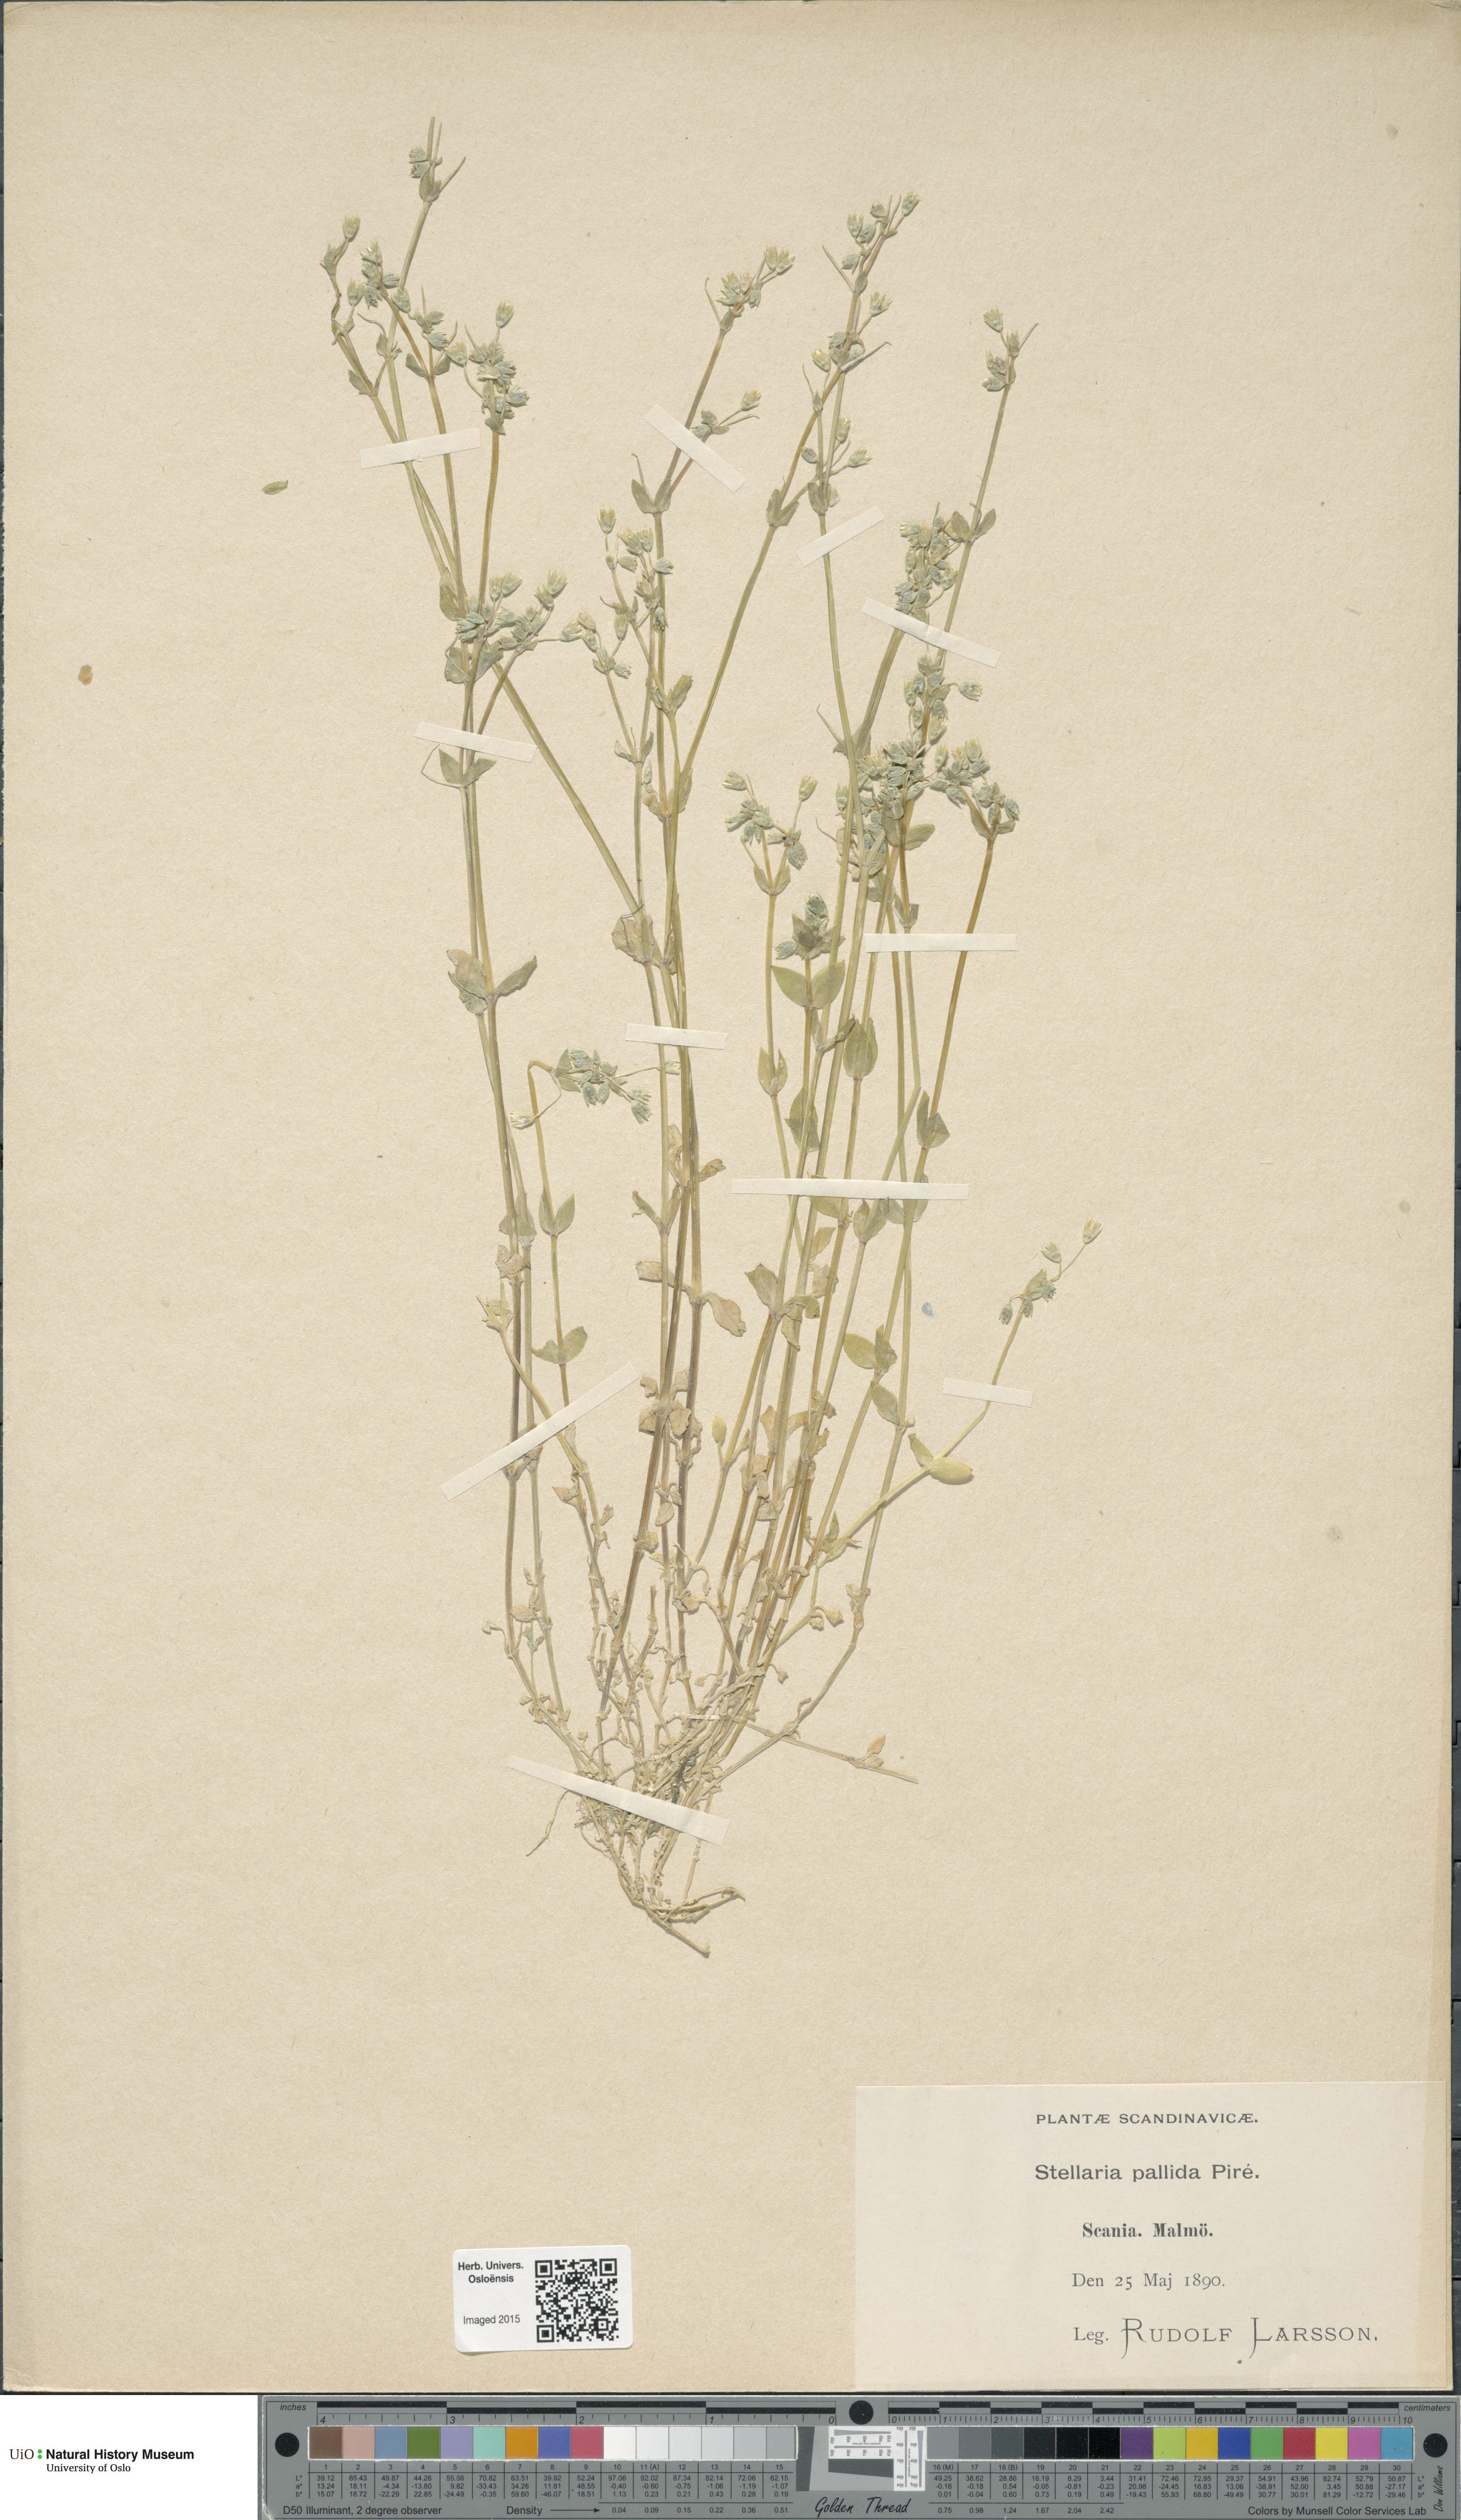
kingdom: Plantae
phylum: Tracheophyta
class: Magnoliopsida
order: Caryophyllales
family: Caryophyllaceae
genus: Stellaria
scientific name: Stellaria apetala
